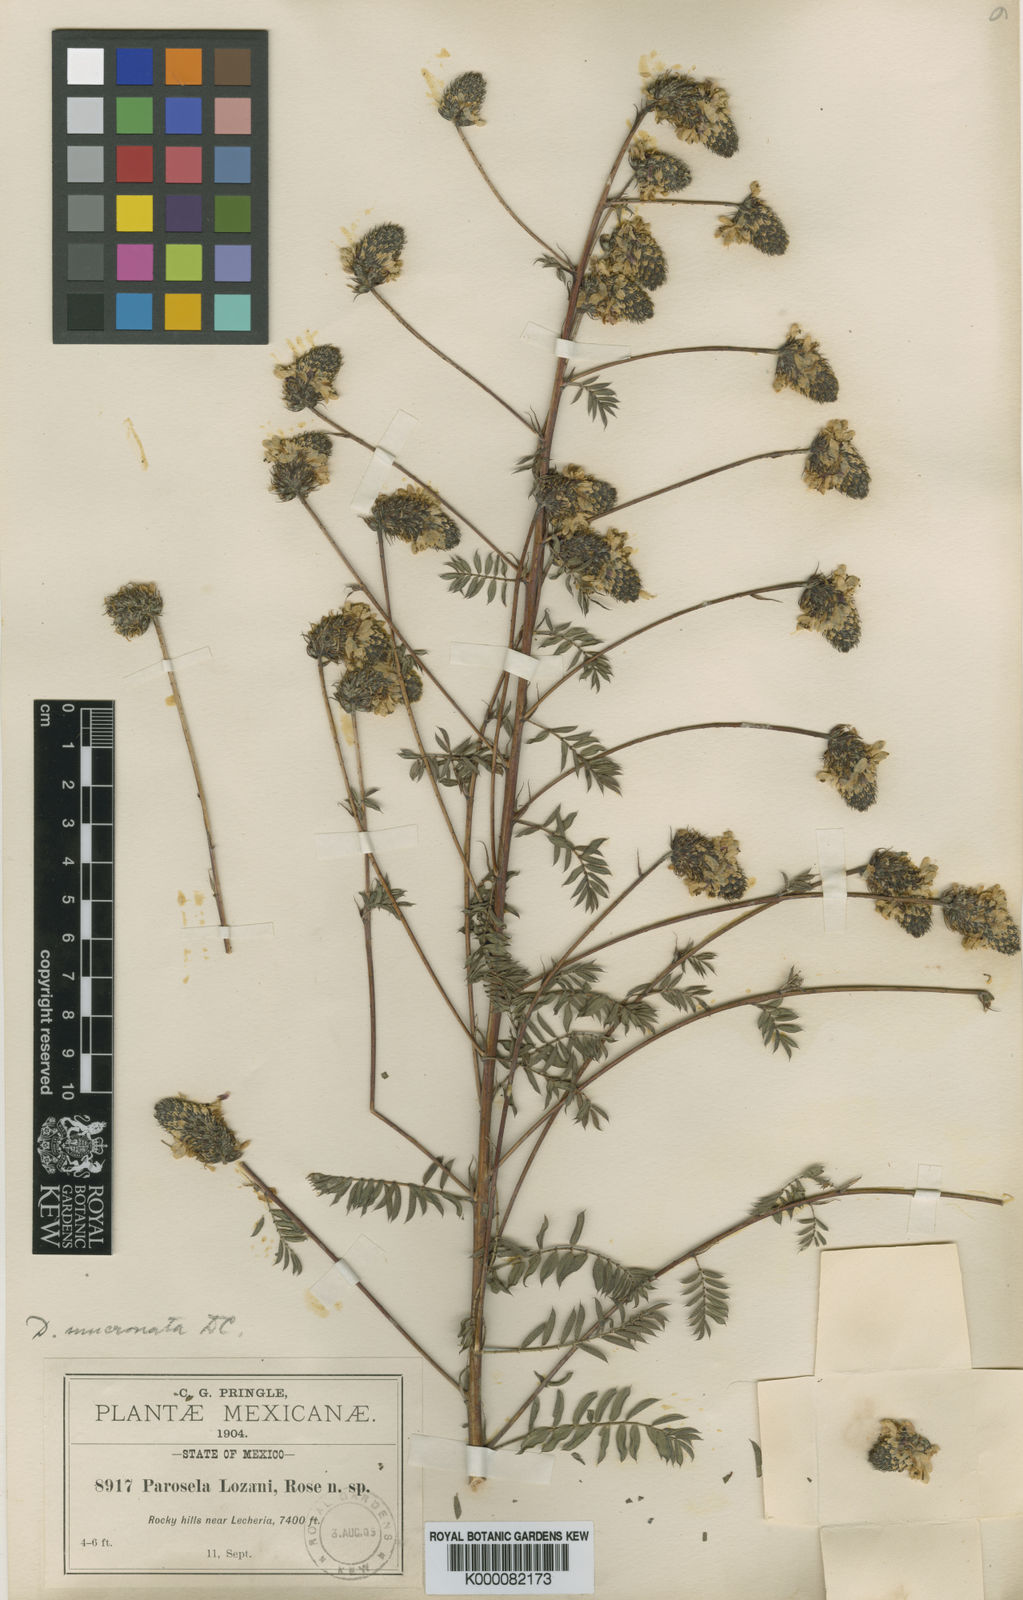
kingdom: Plantae
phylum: Tracheophyta
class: Magnoliopsida
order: Fabales
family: Fabaceae
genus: Dalea
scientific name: Dalea mucronata
